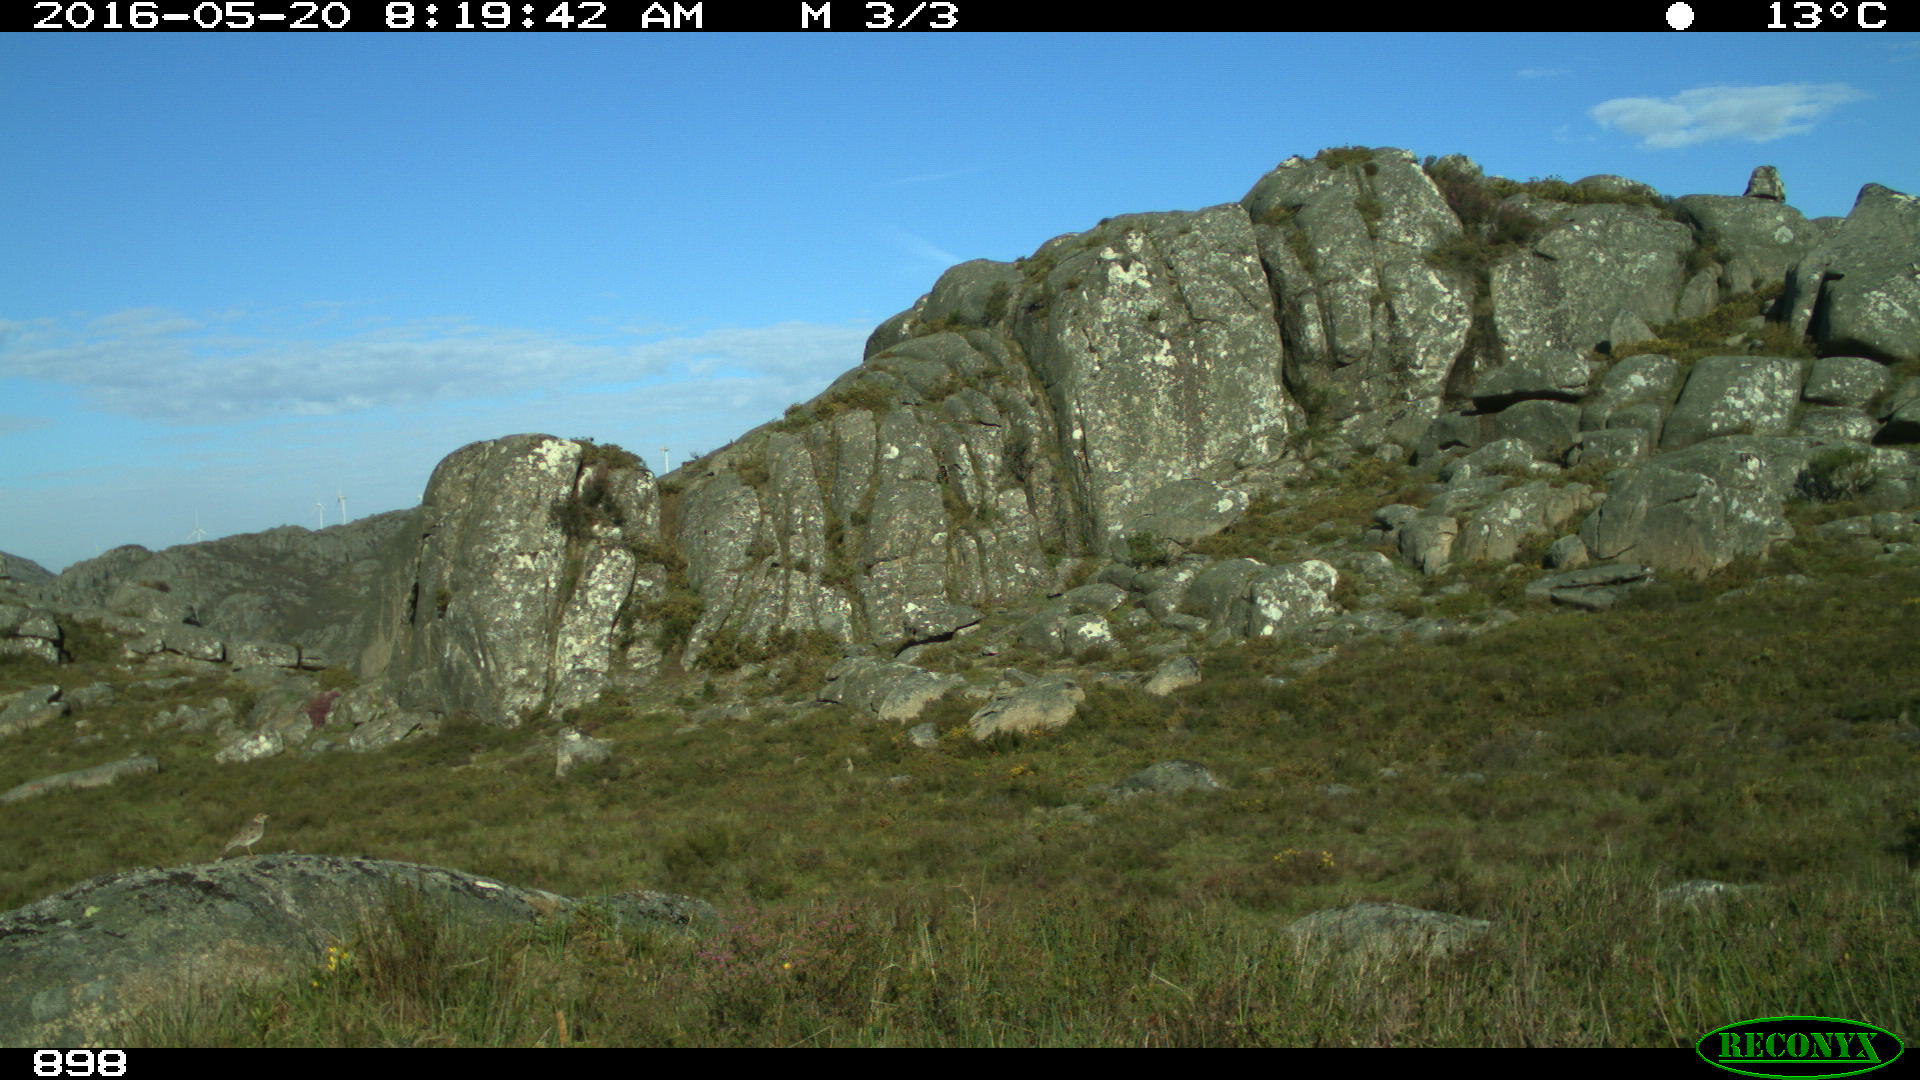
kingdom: Animalia
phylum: Chordata
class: Mammalia
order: Perissodactyla
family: Equidae
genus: Equus
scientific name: Equus caballus
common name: Horse
